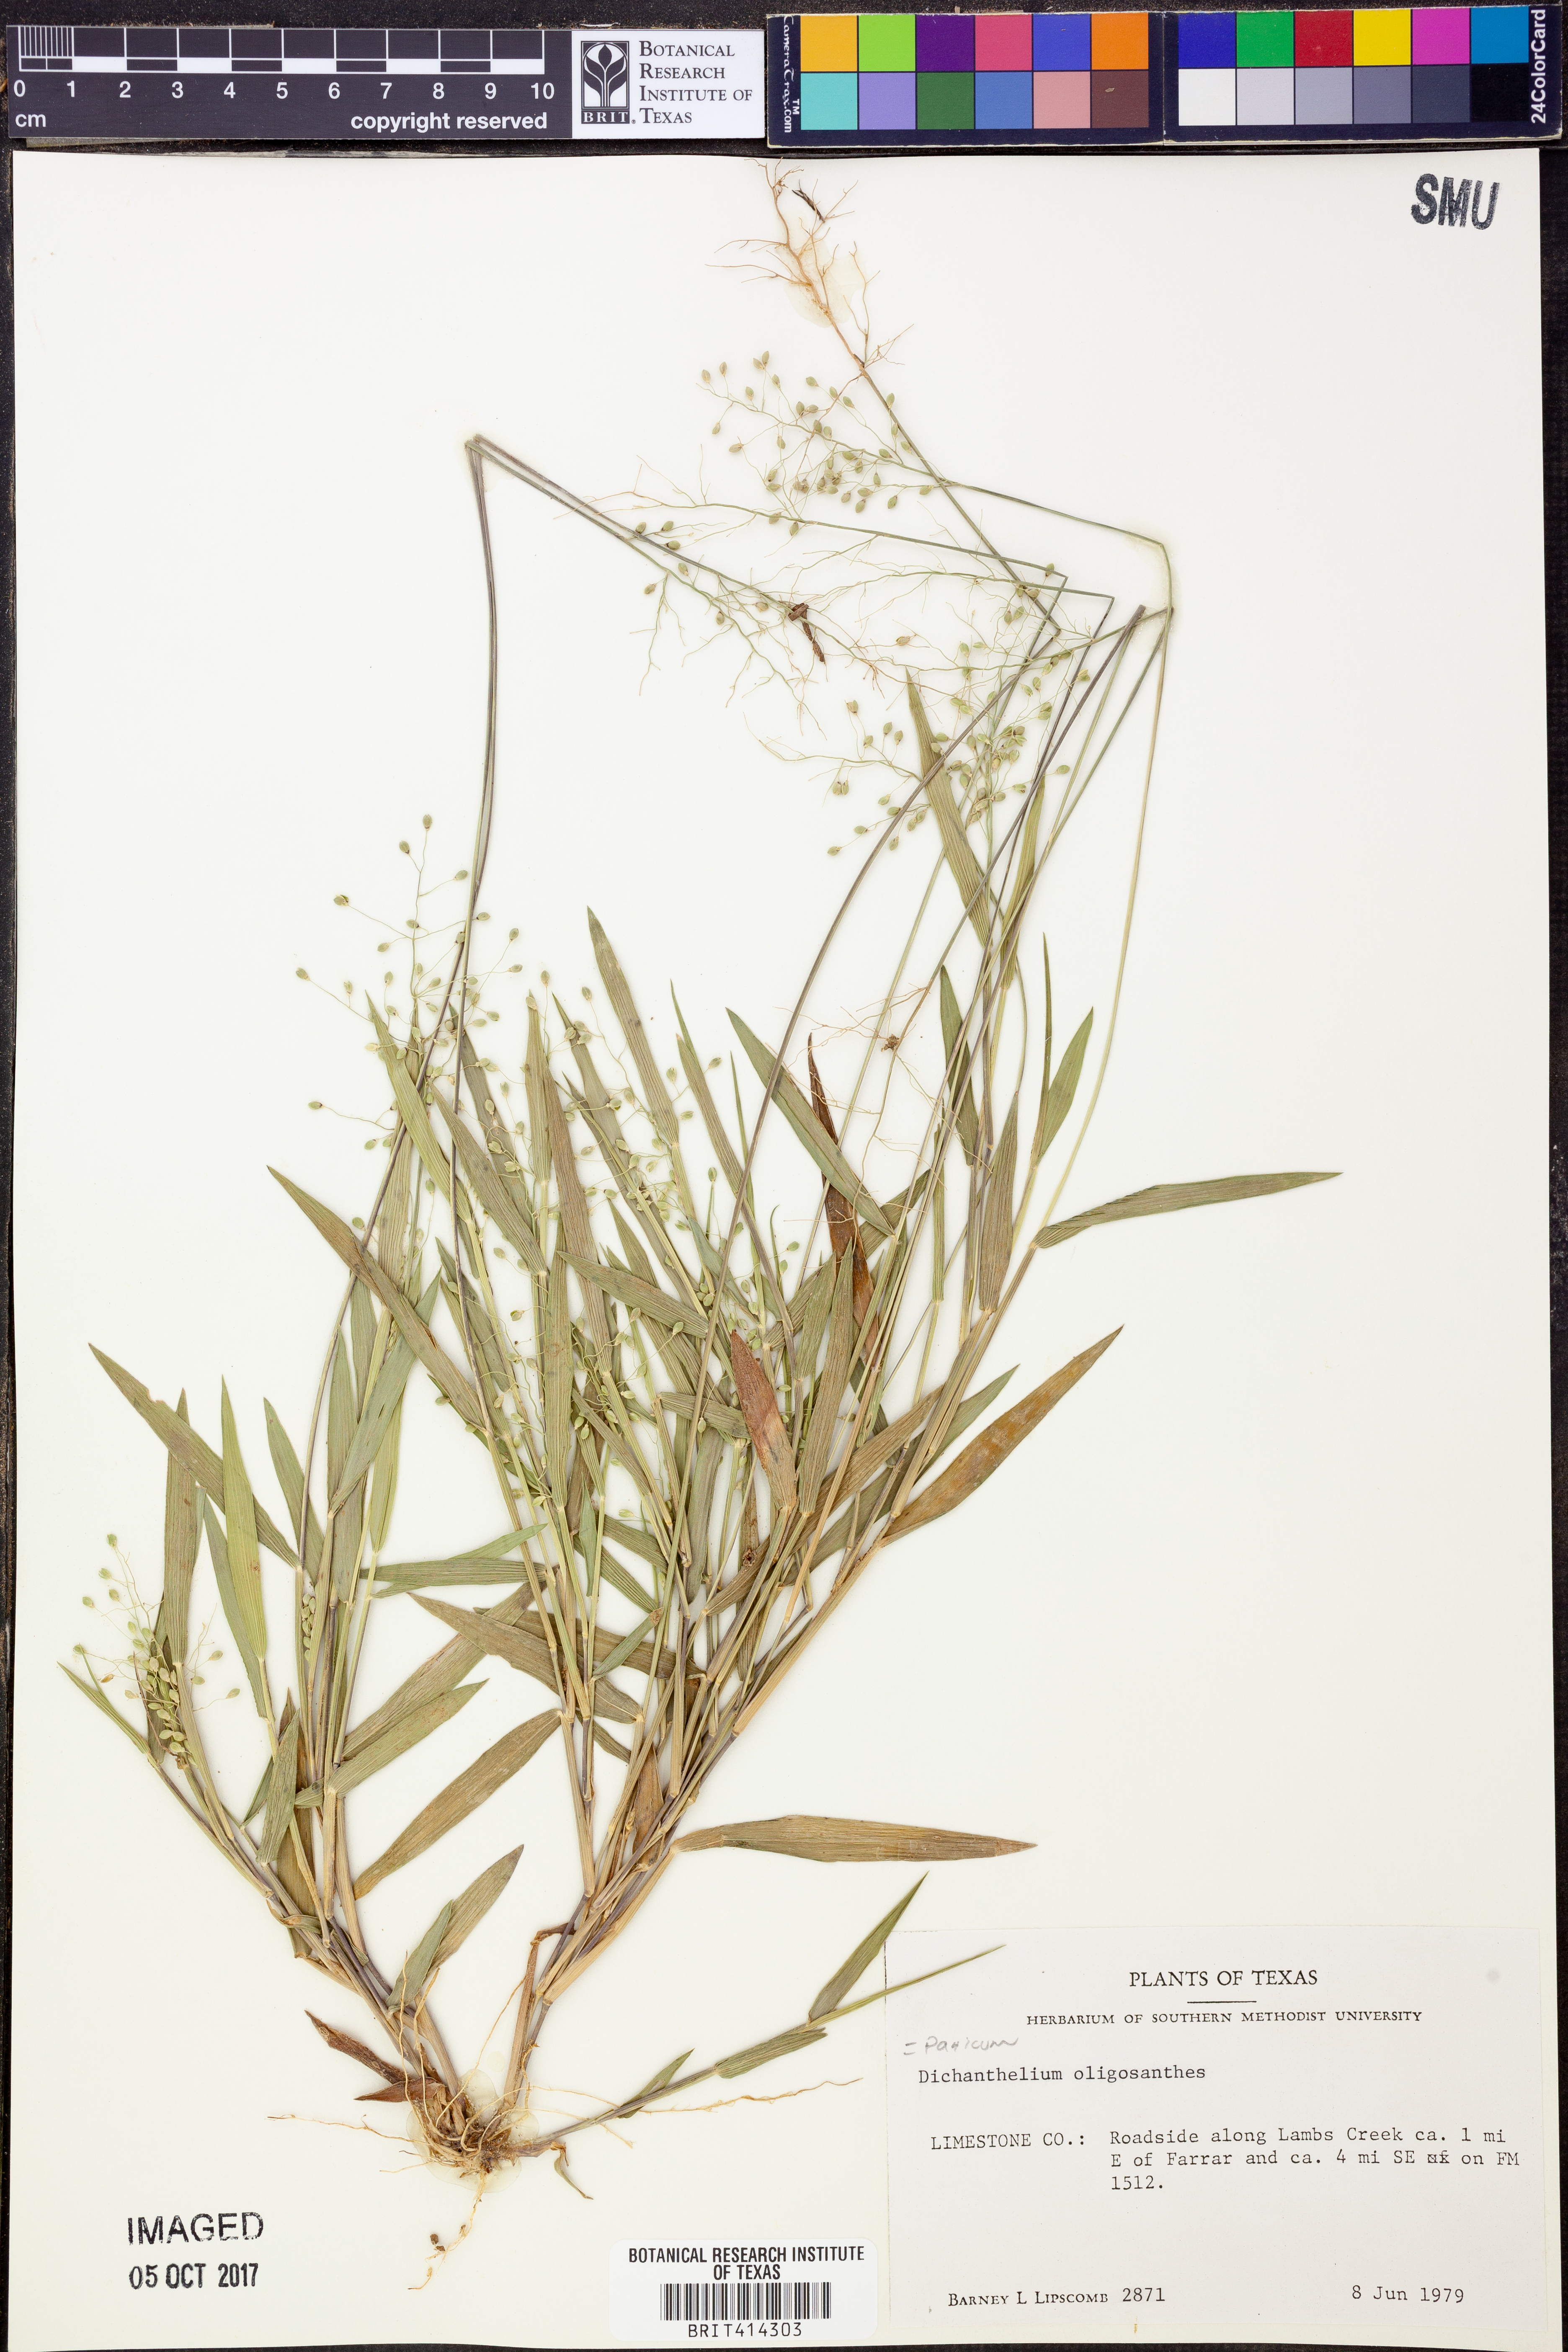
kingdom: Plantae
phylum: Tracheophyta
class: Liliopsida
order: Poales
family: Poaceae
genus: Dichanthelium
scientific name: Dichanthelium oligosanthes
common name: Few-anther obscuregrass
